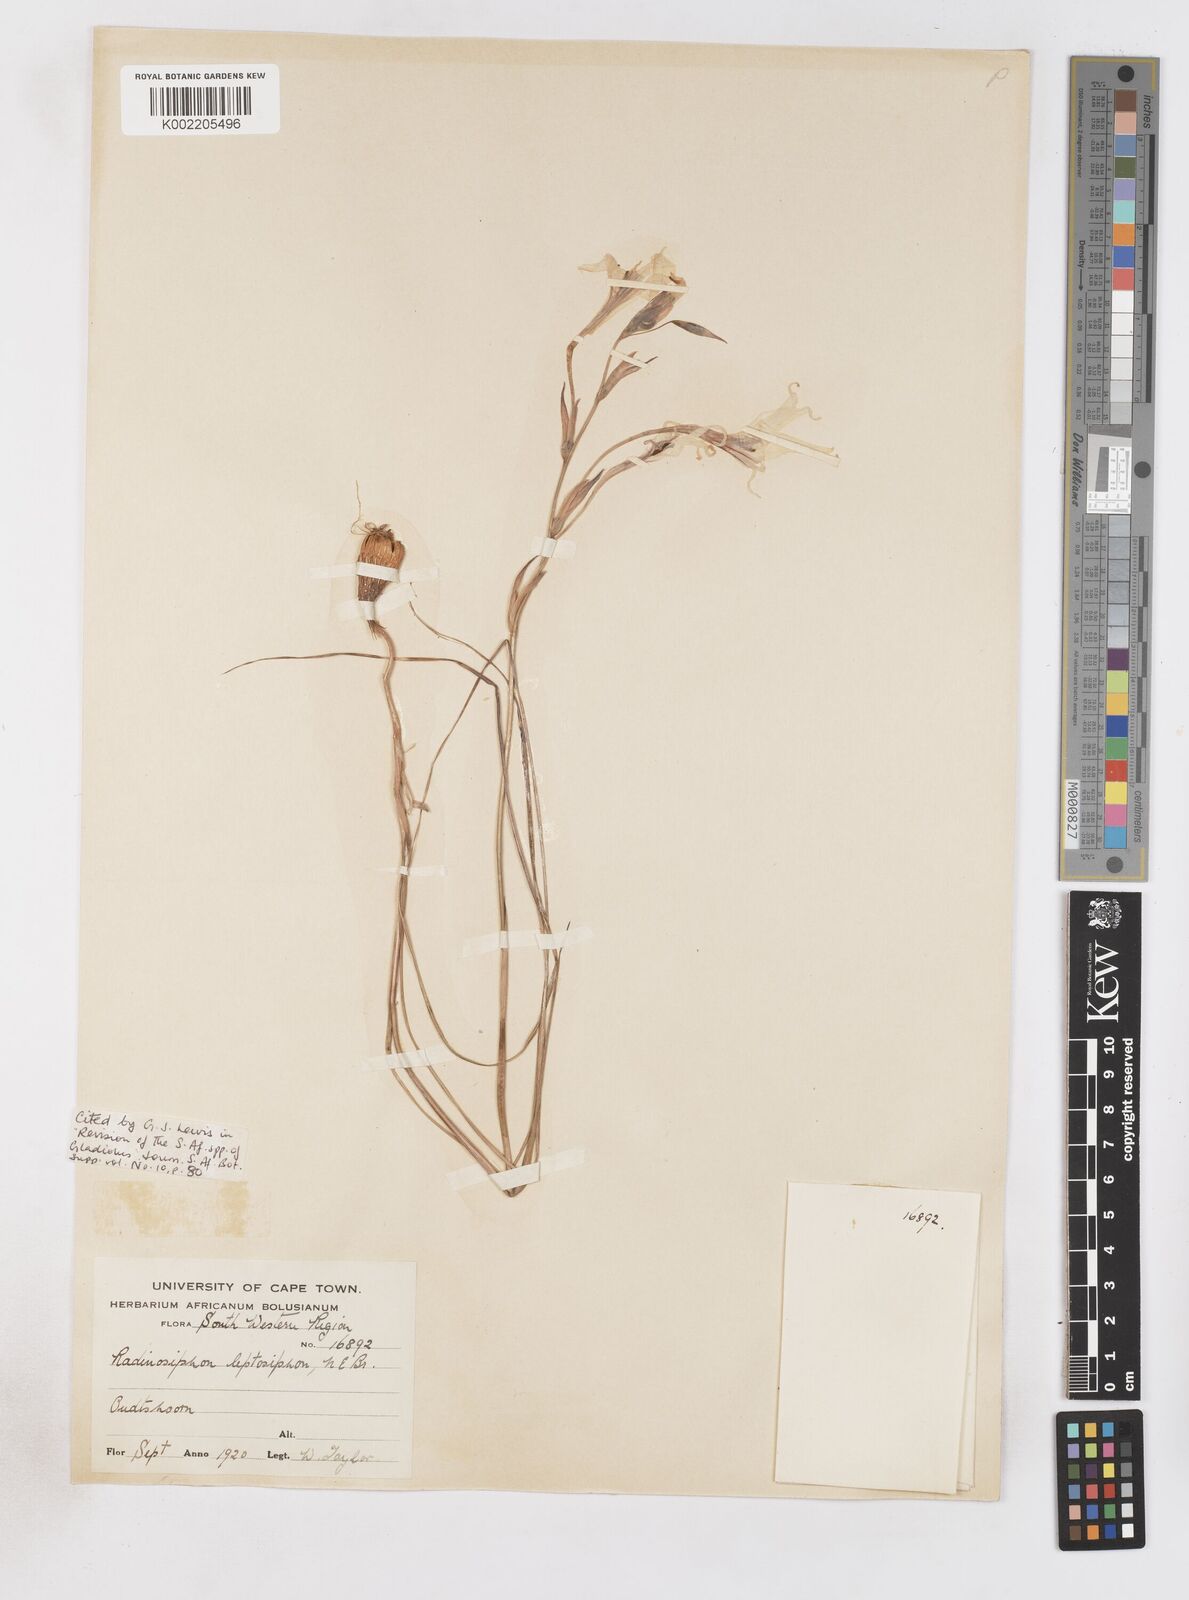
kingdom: Plantae
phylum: Tracheophyta
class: Liliopsida
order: Asparagales
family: Iridaceae
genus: Gladiolus
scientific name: Gladiolus leptosiphon
